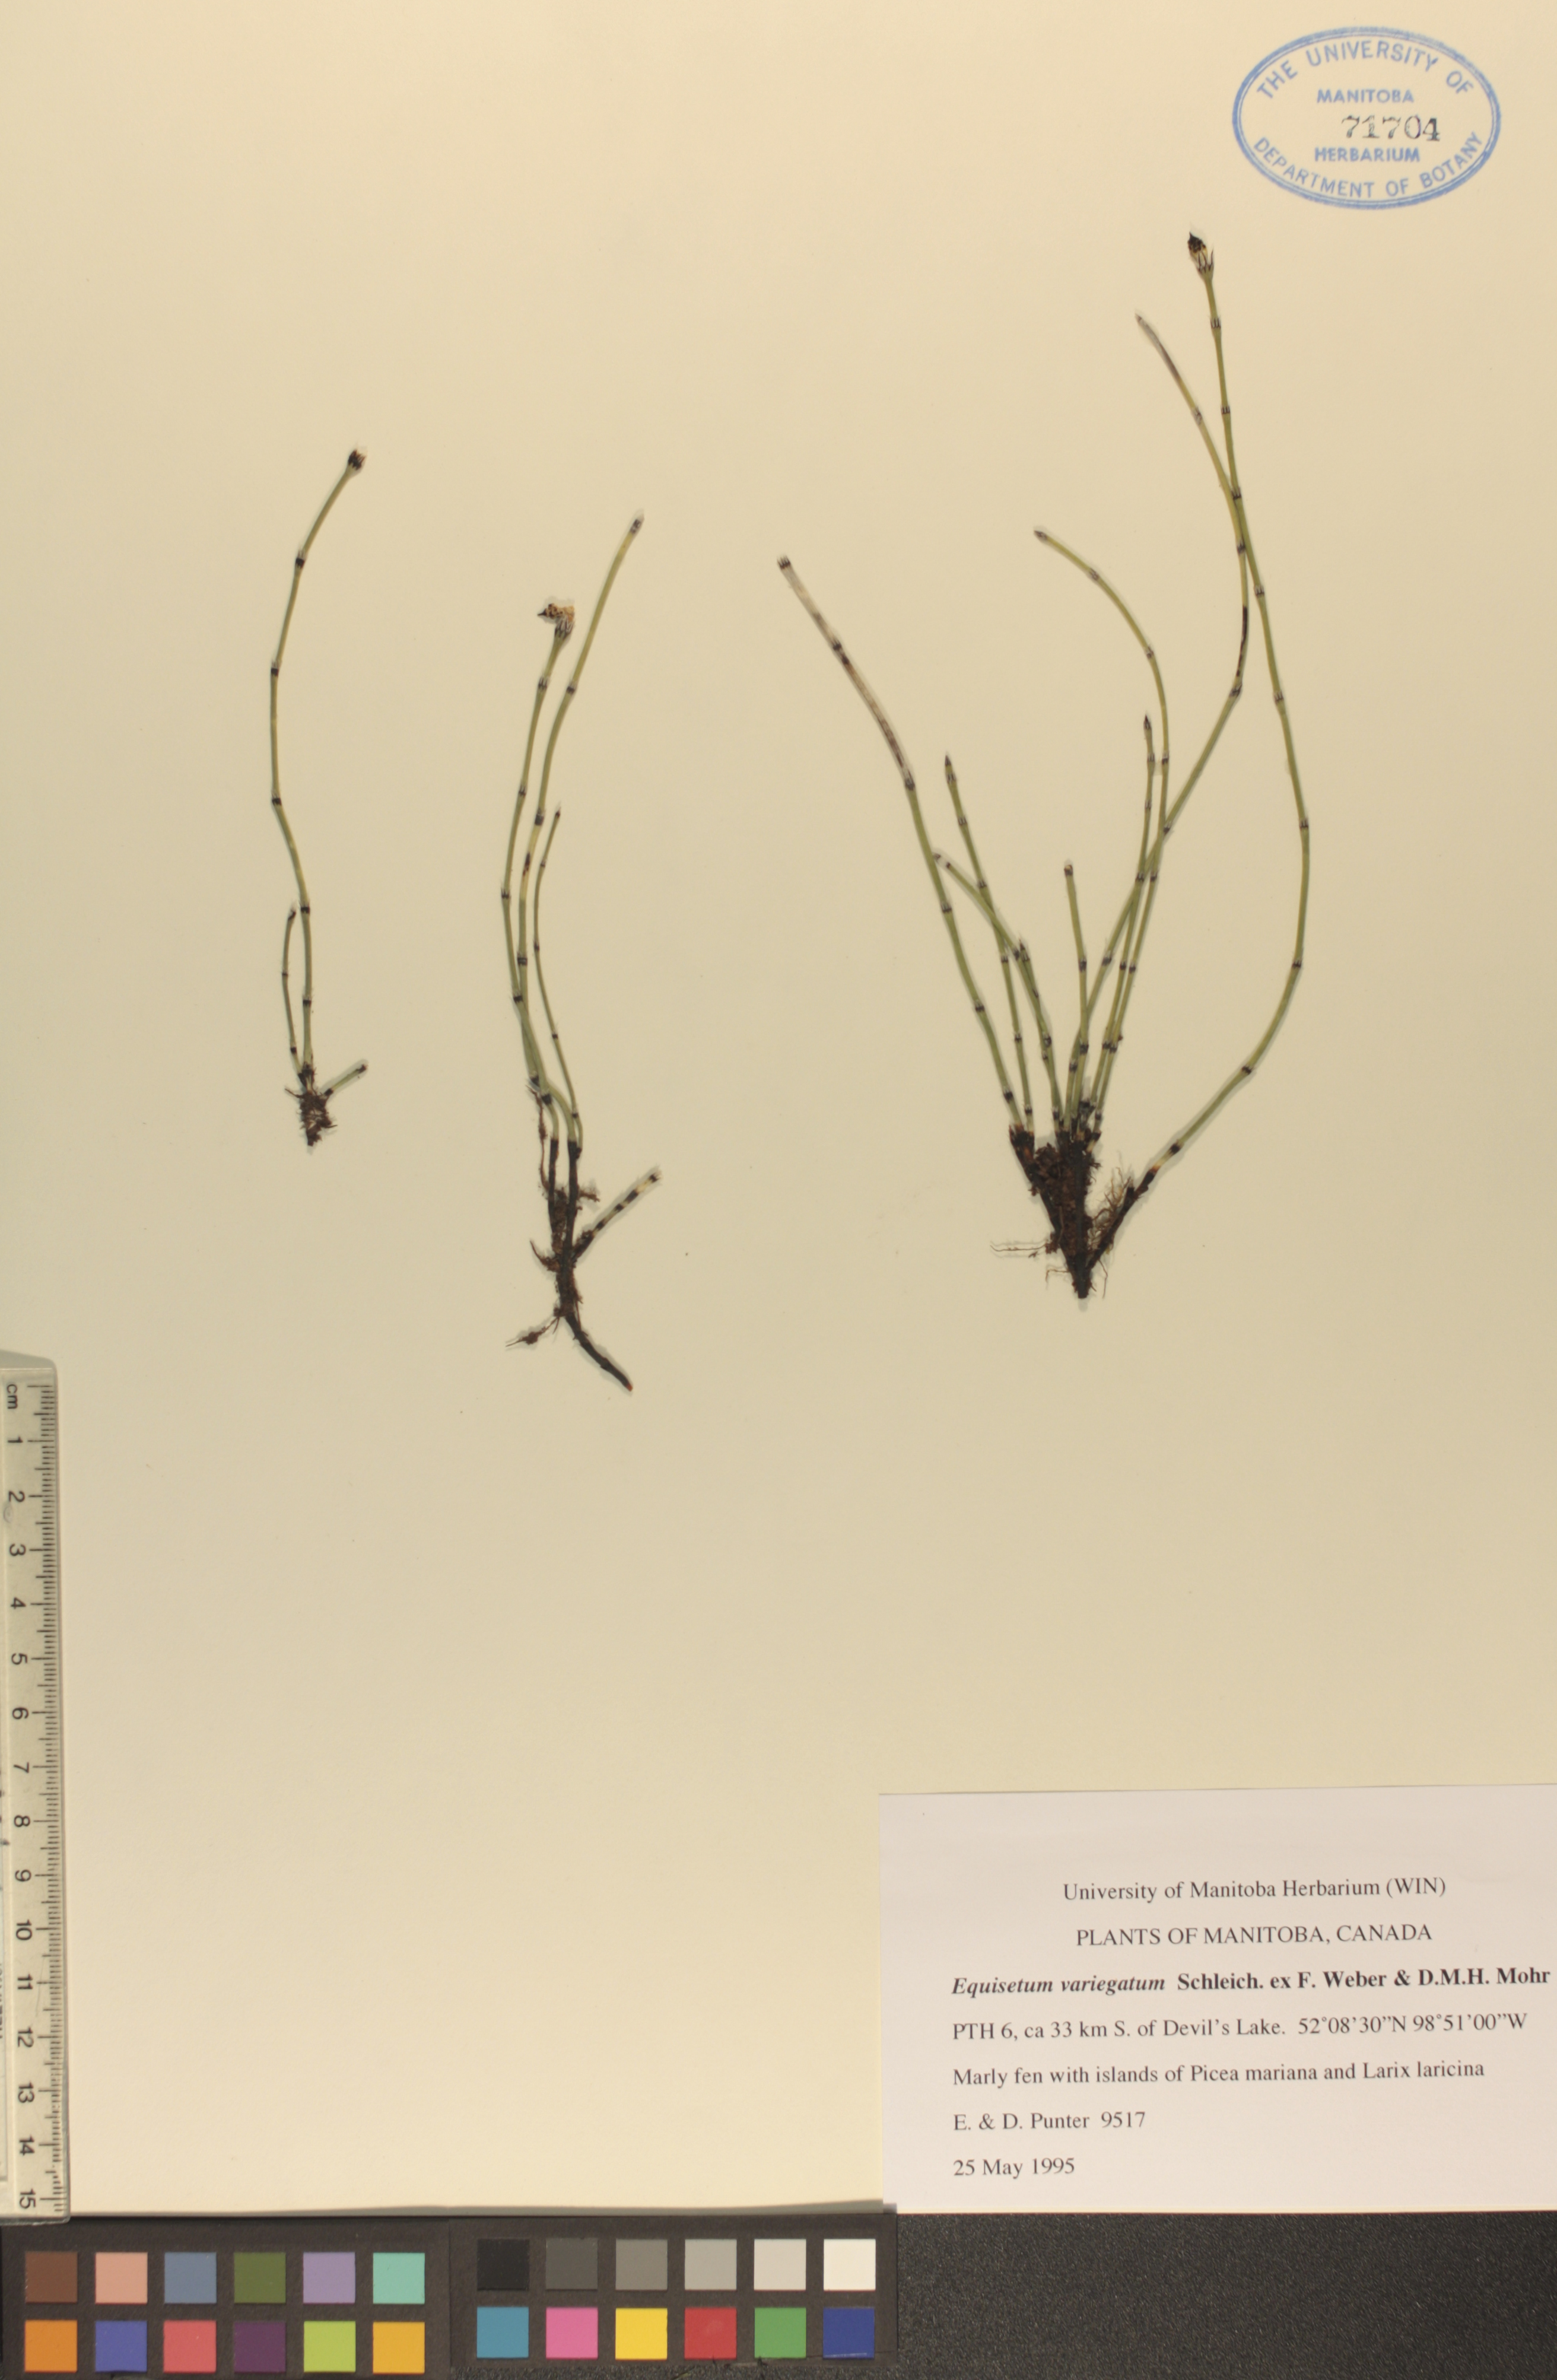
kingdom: Plantae
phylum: Tracheophyta
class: Polypodiopsida
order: Equisetales
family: Equisetaceae
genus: Equisetum
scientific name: Equisetum variegatum
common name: Variegated horsetail
